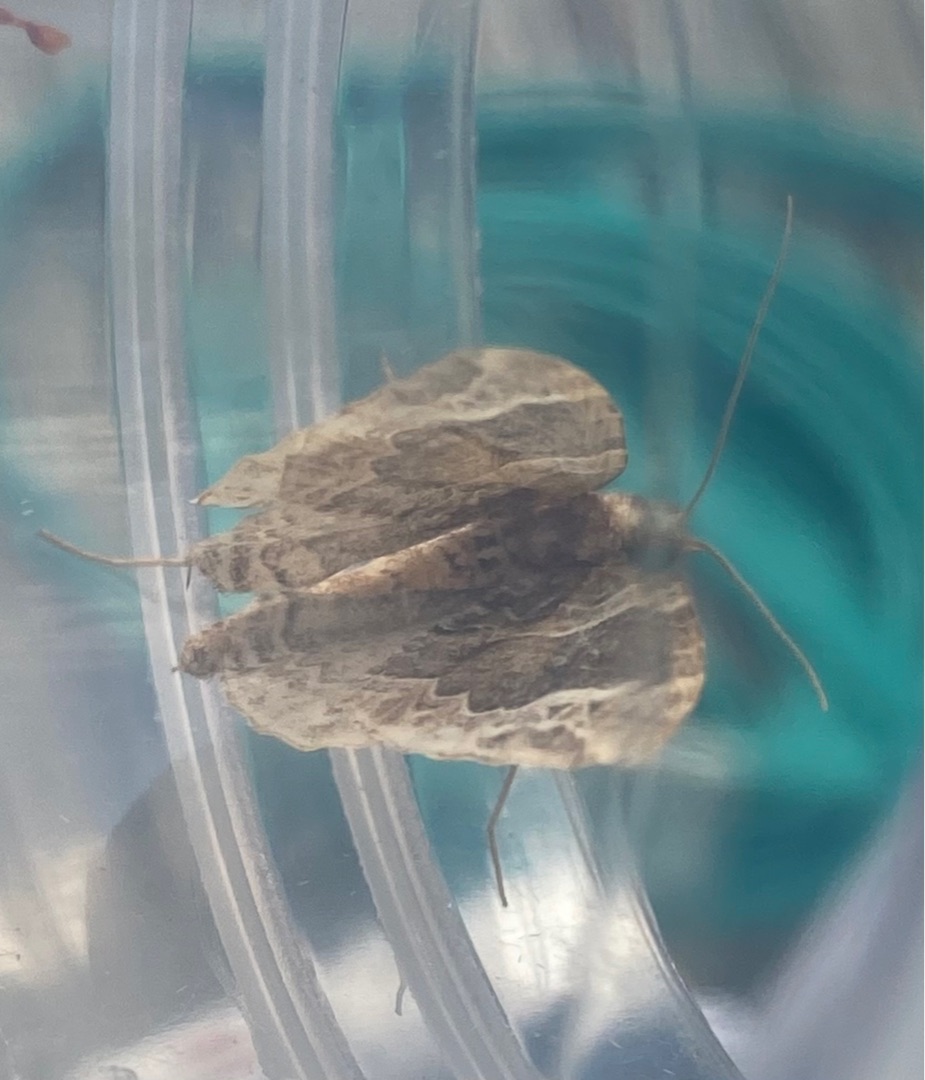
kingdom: Animalia
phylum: Arthropoda
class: Insecta
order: Lepidoptera
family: Geometridae
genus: Eulithis
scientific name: Eulithis prunata
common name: Broget havemåler
